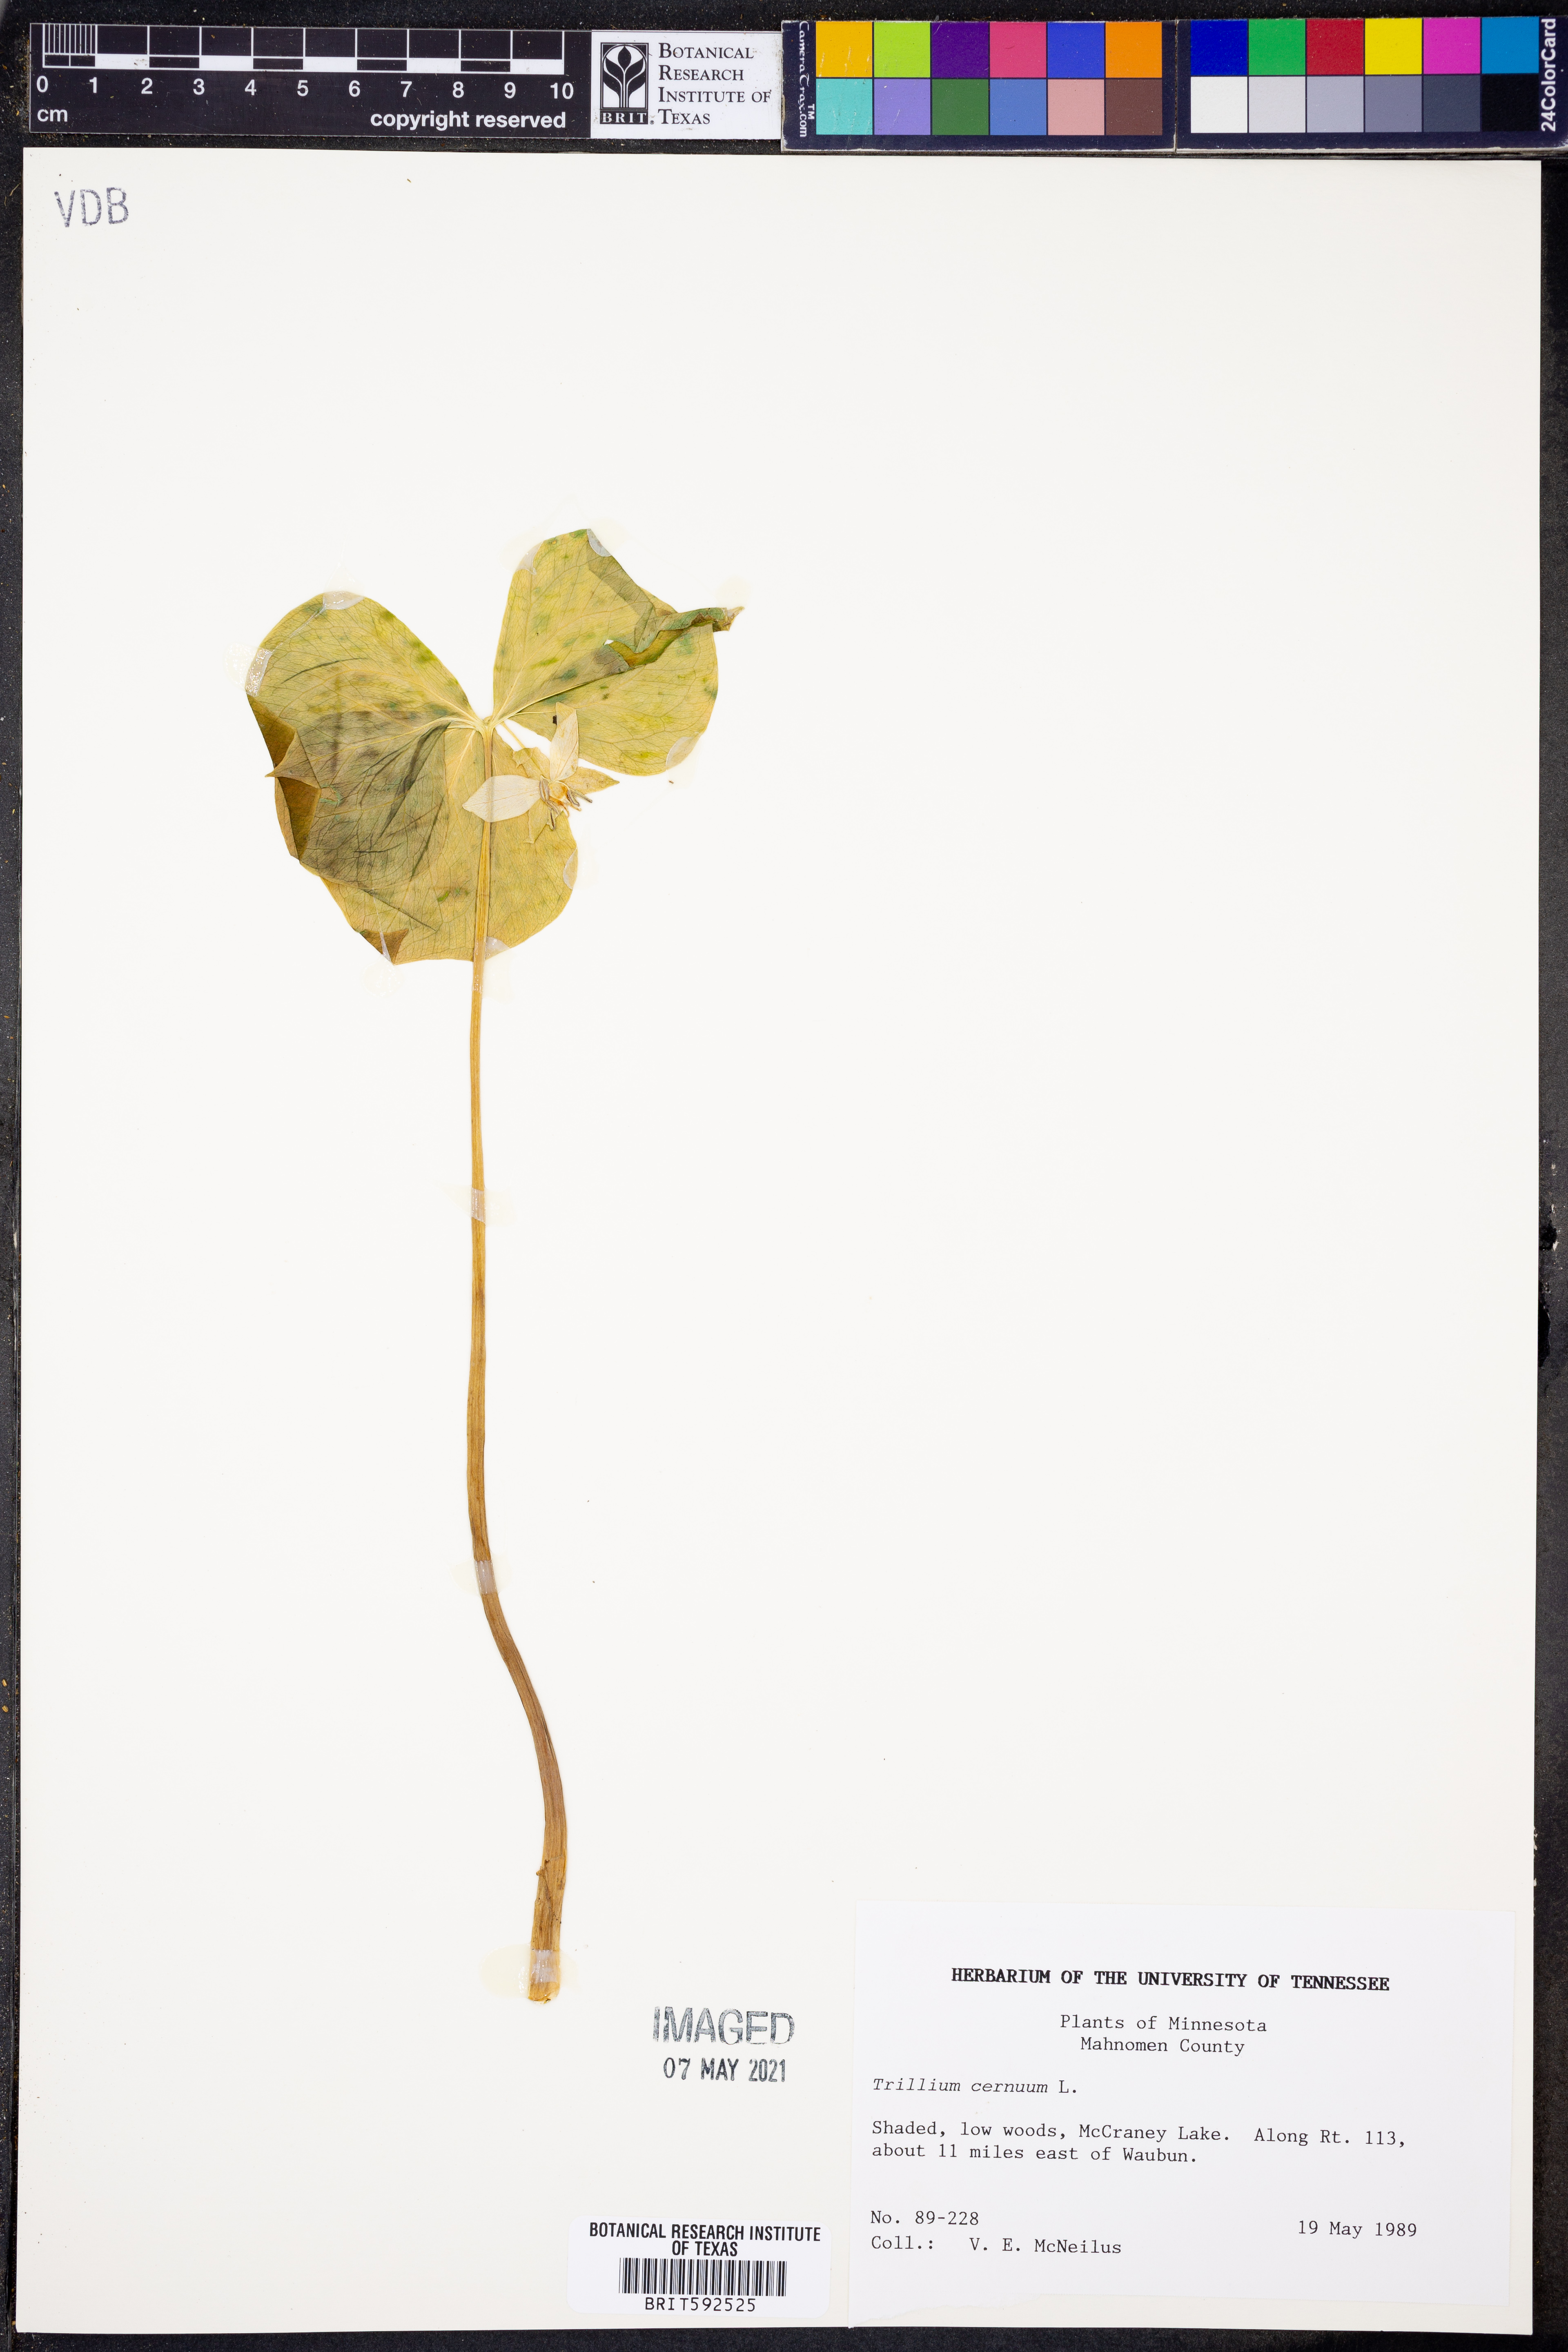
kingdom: Plantae
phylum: Tracheophyta
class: Liliopsida
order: Liliales
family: Melanthiaceae
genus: Trillium
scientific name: Trillium cernuum
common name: Nodding trillium
